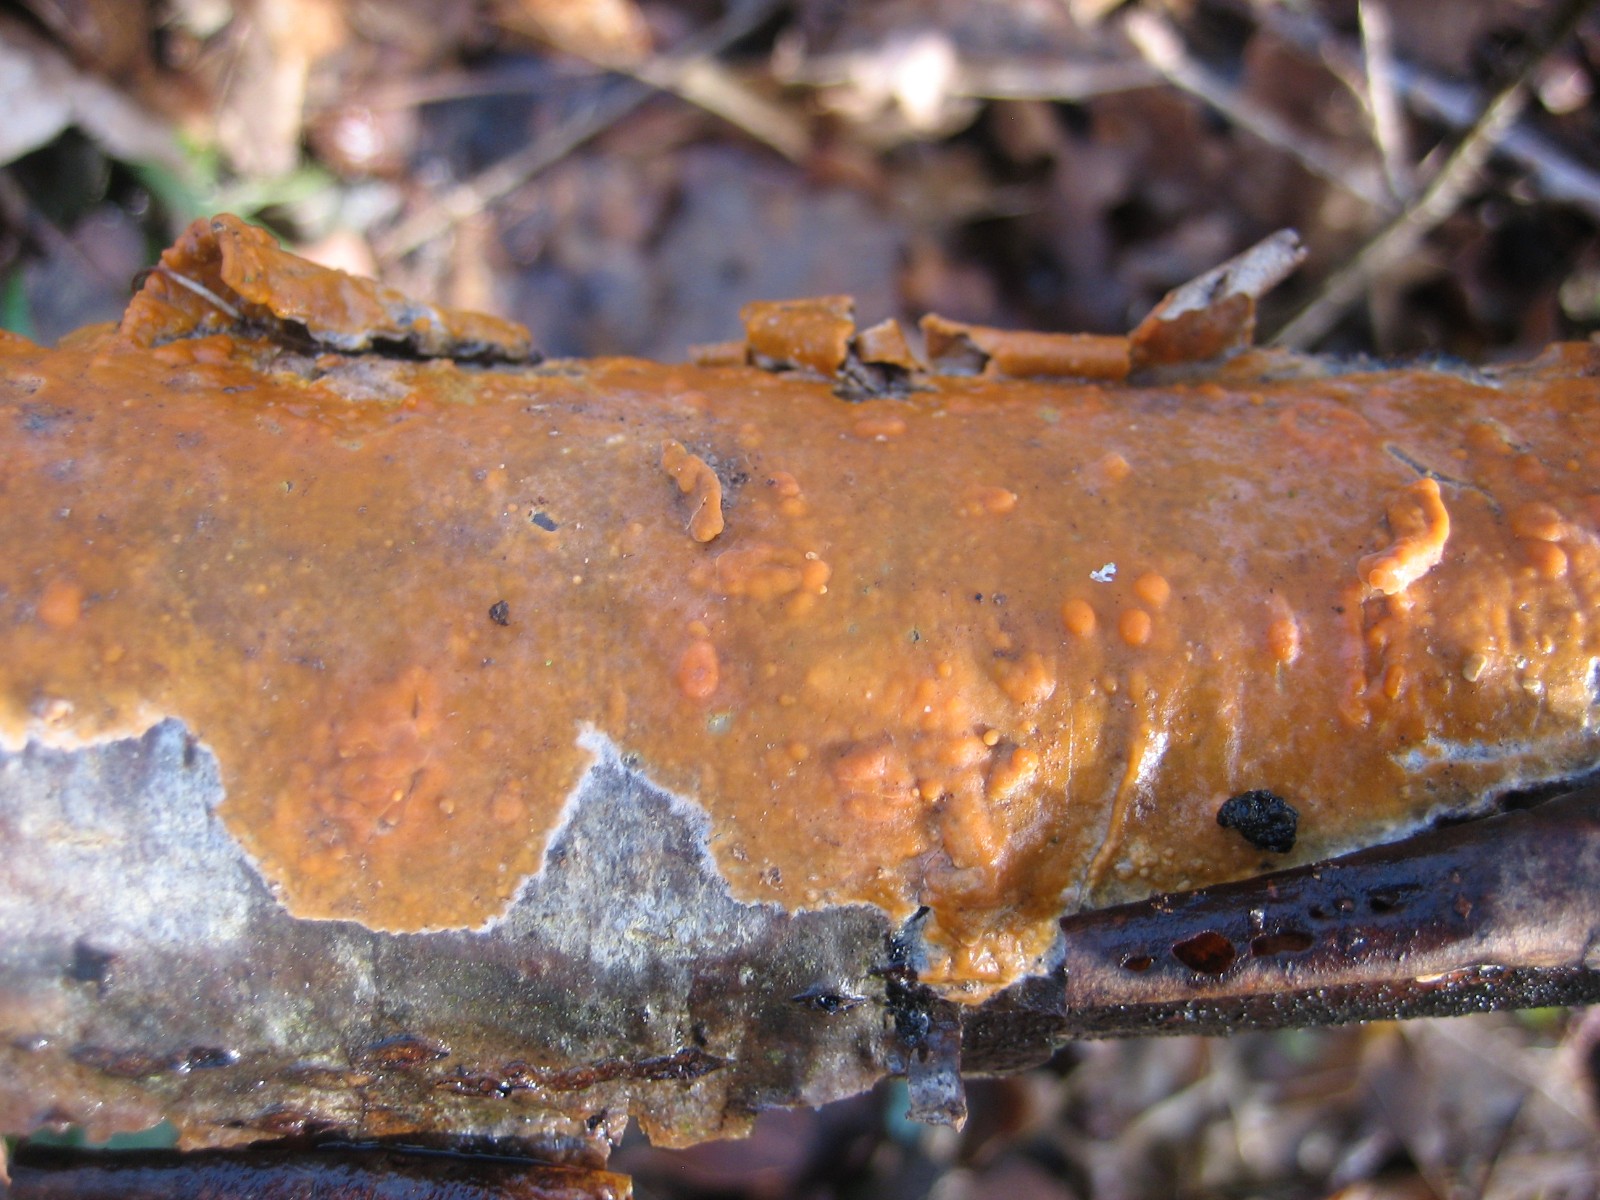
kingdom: Fungi
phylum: Basidiomycota
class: Agaricomycetes
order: Russulales
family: Peniophoraceae
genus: Peniophora
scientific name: Peniophora incarnata
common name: laksefarvet voksskind
